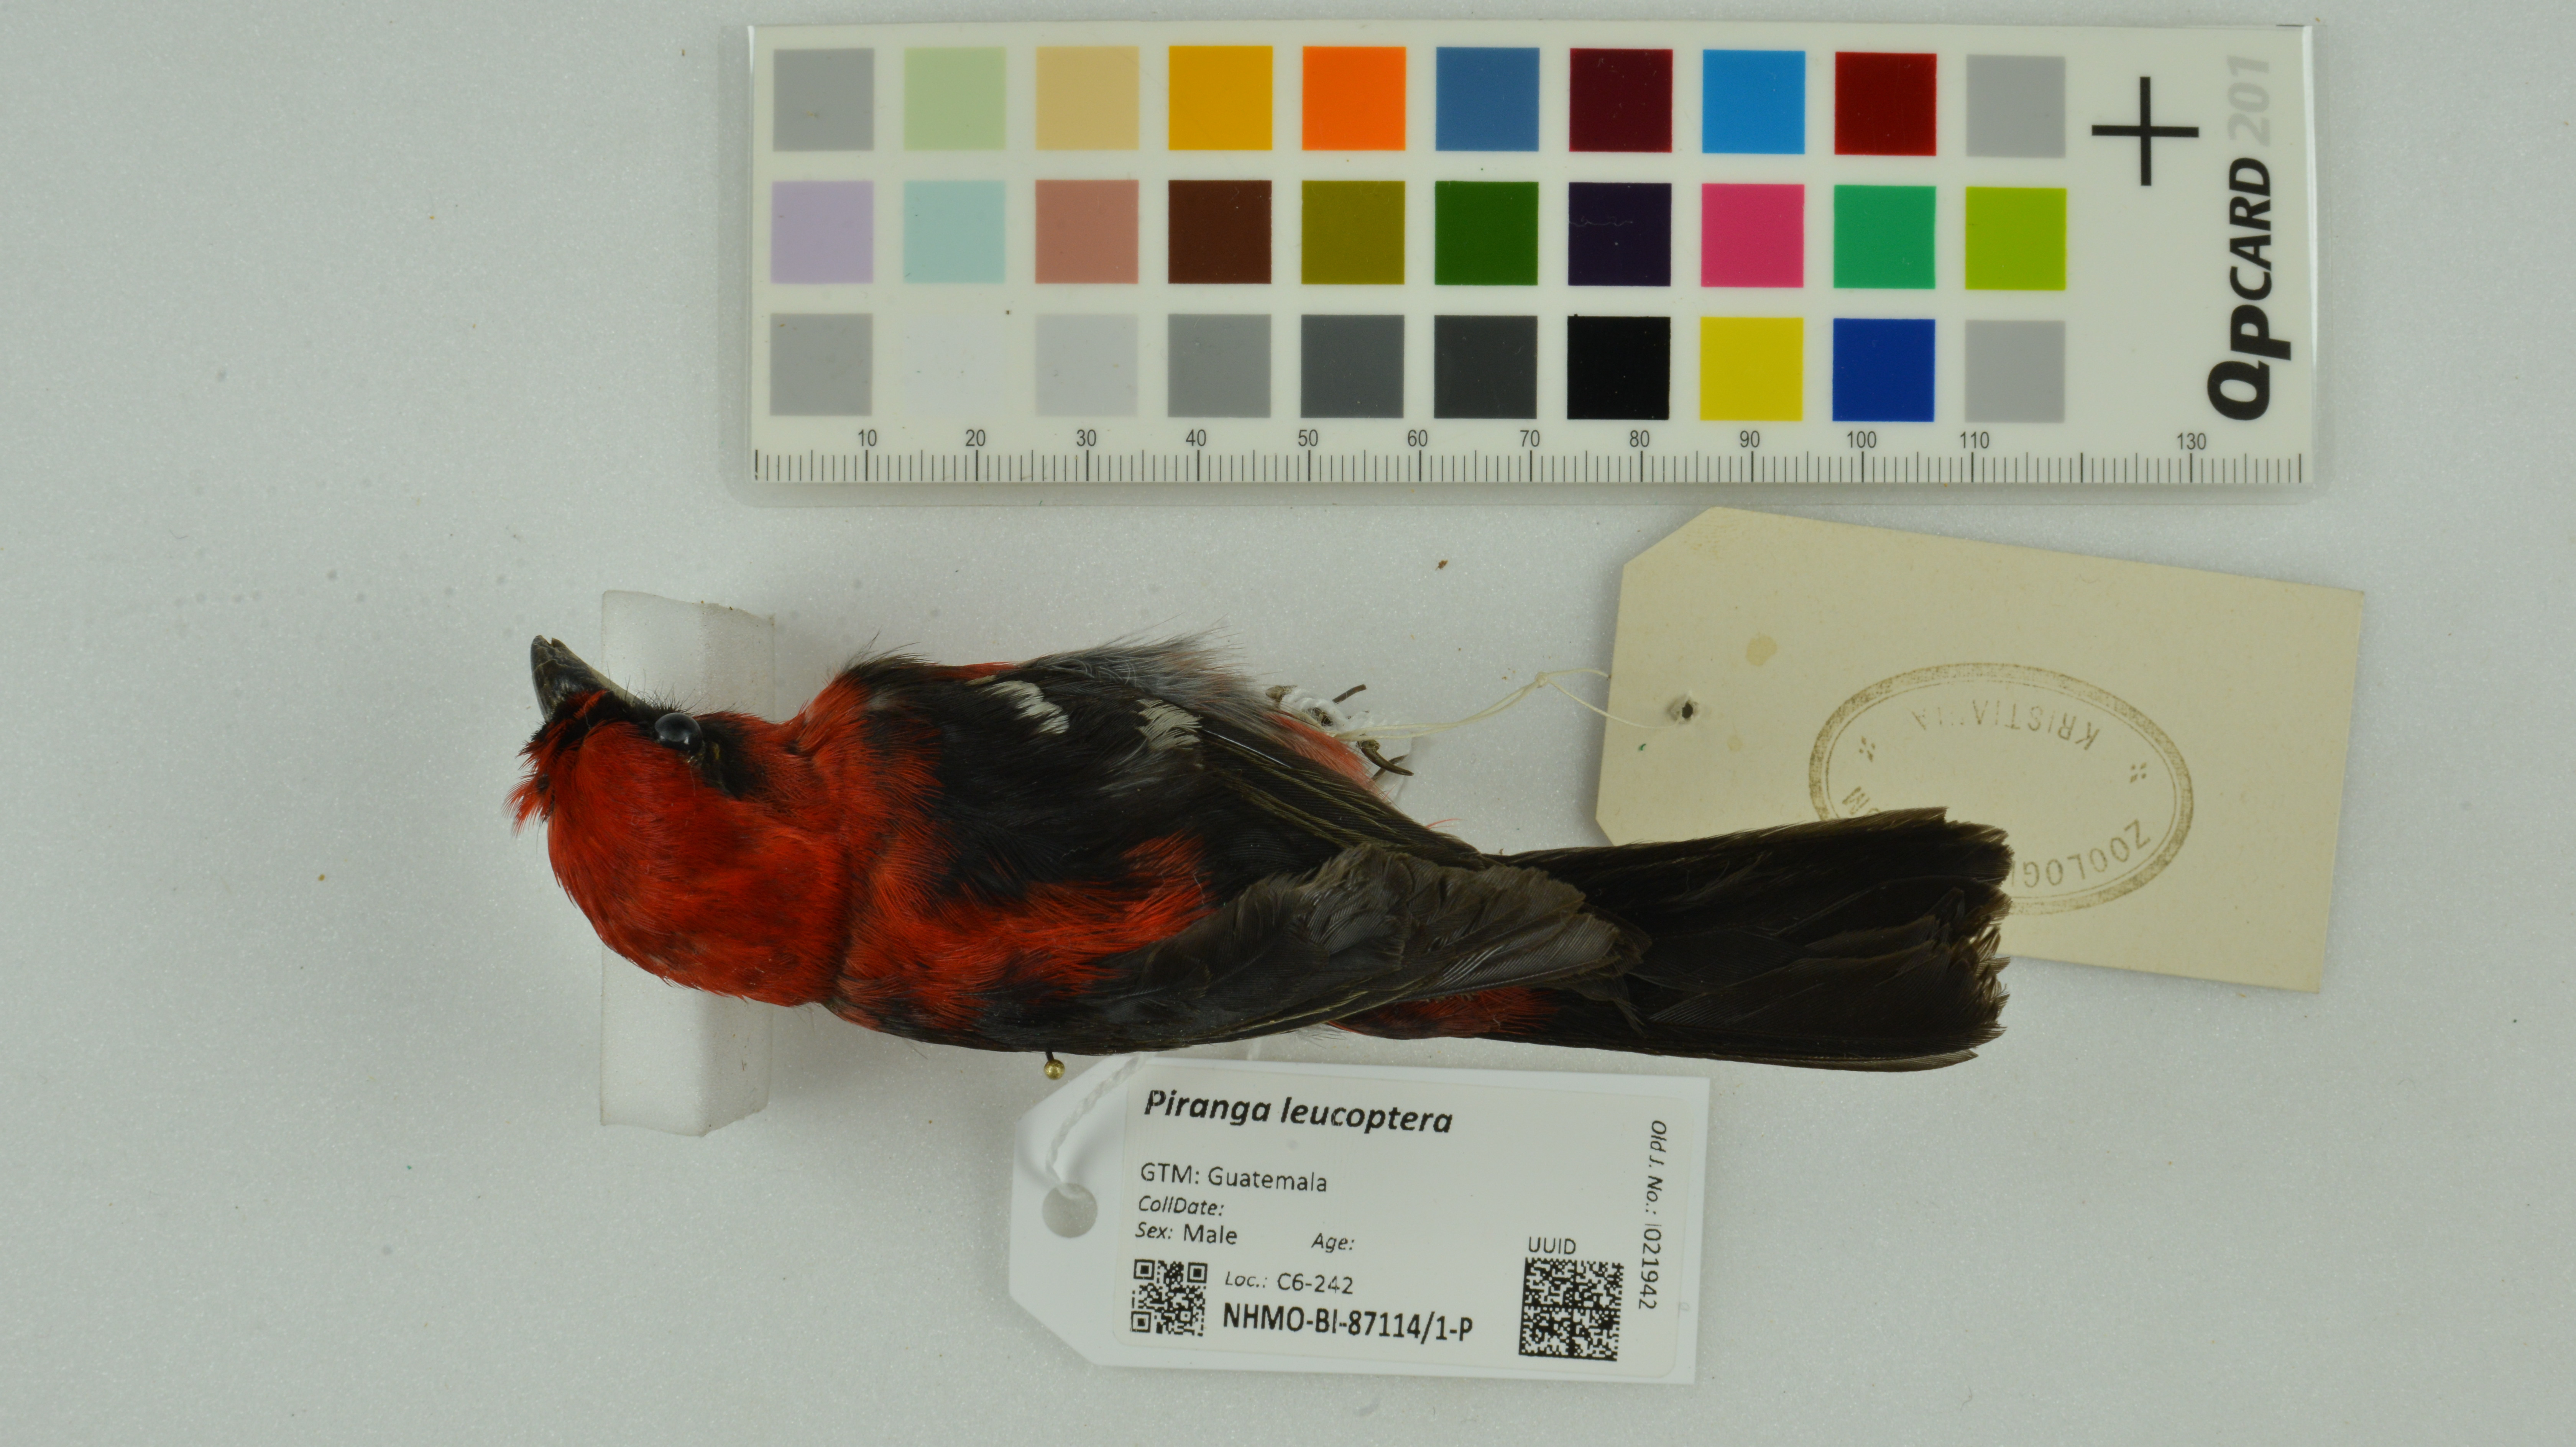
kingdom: Animalia
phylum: Chordata
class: Aves
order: Passeriformes
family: Cardinalidae
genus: Piranga
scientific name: Piranga leucoptera
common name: White-winged tanager
